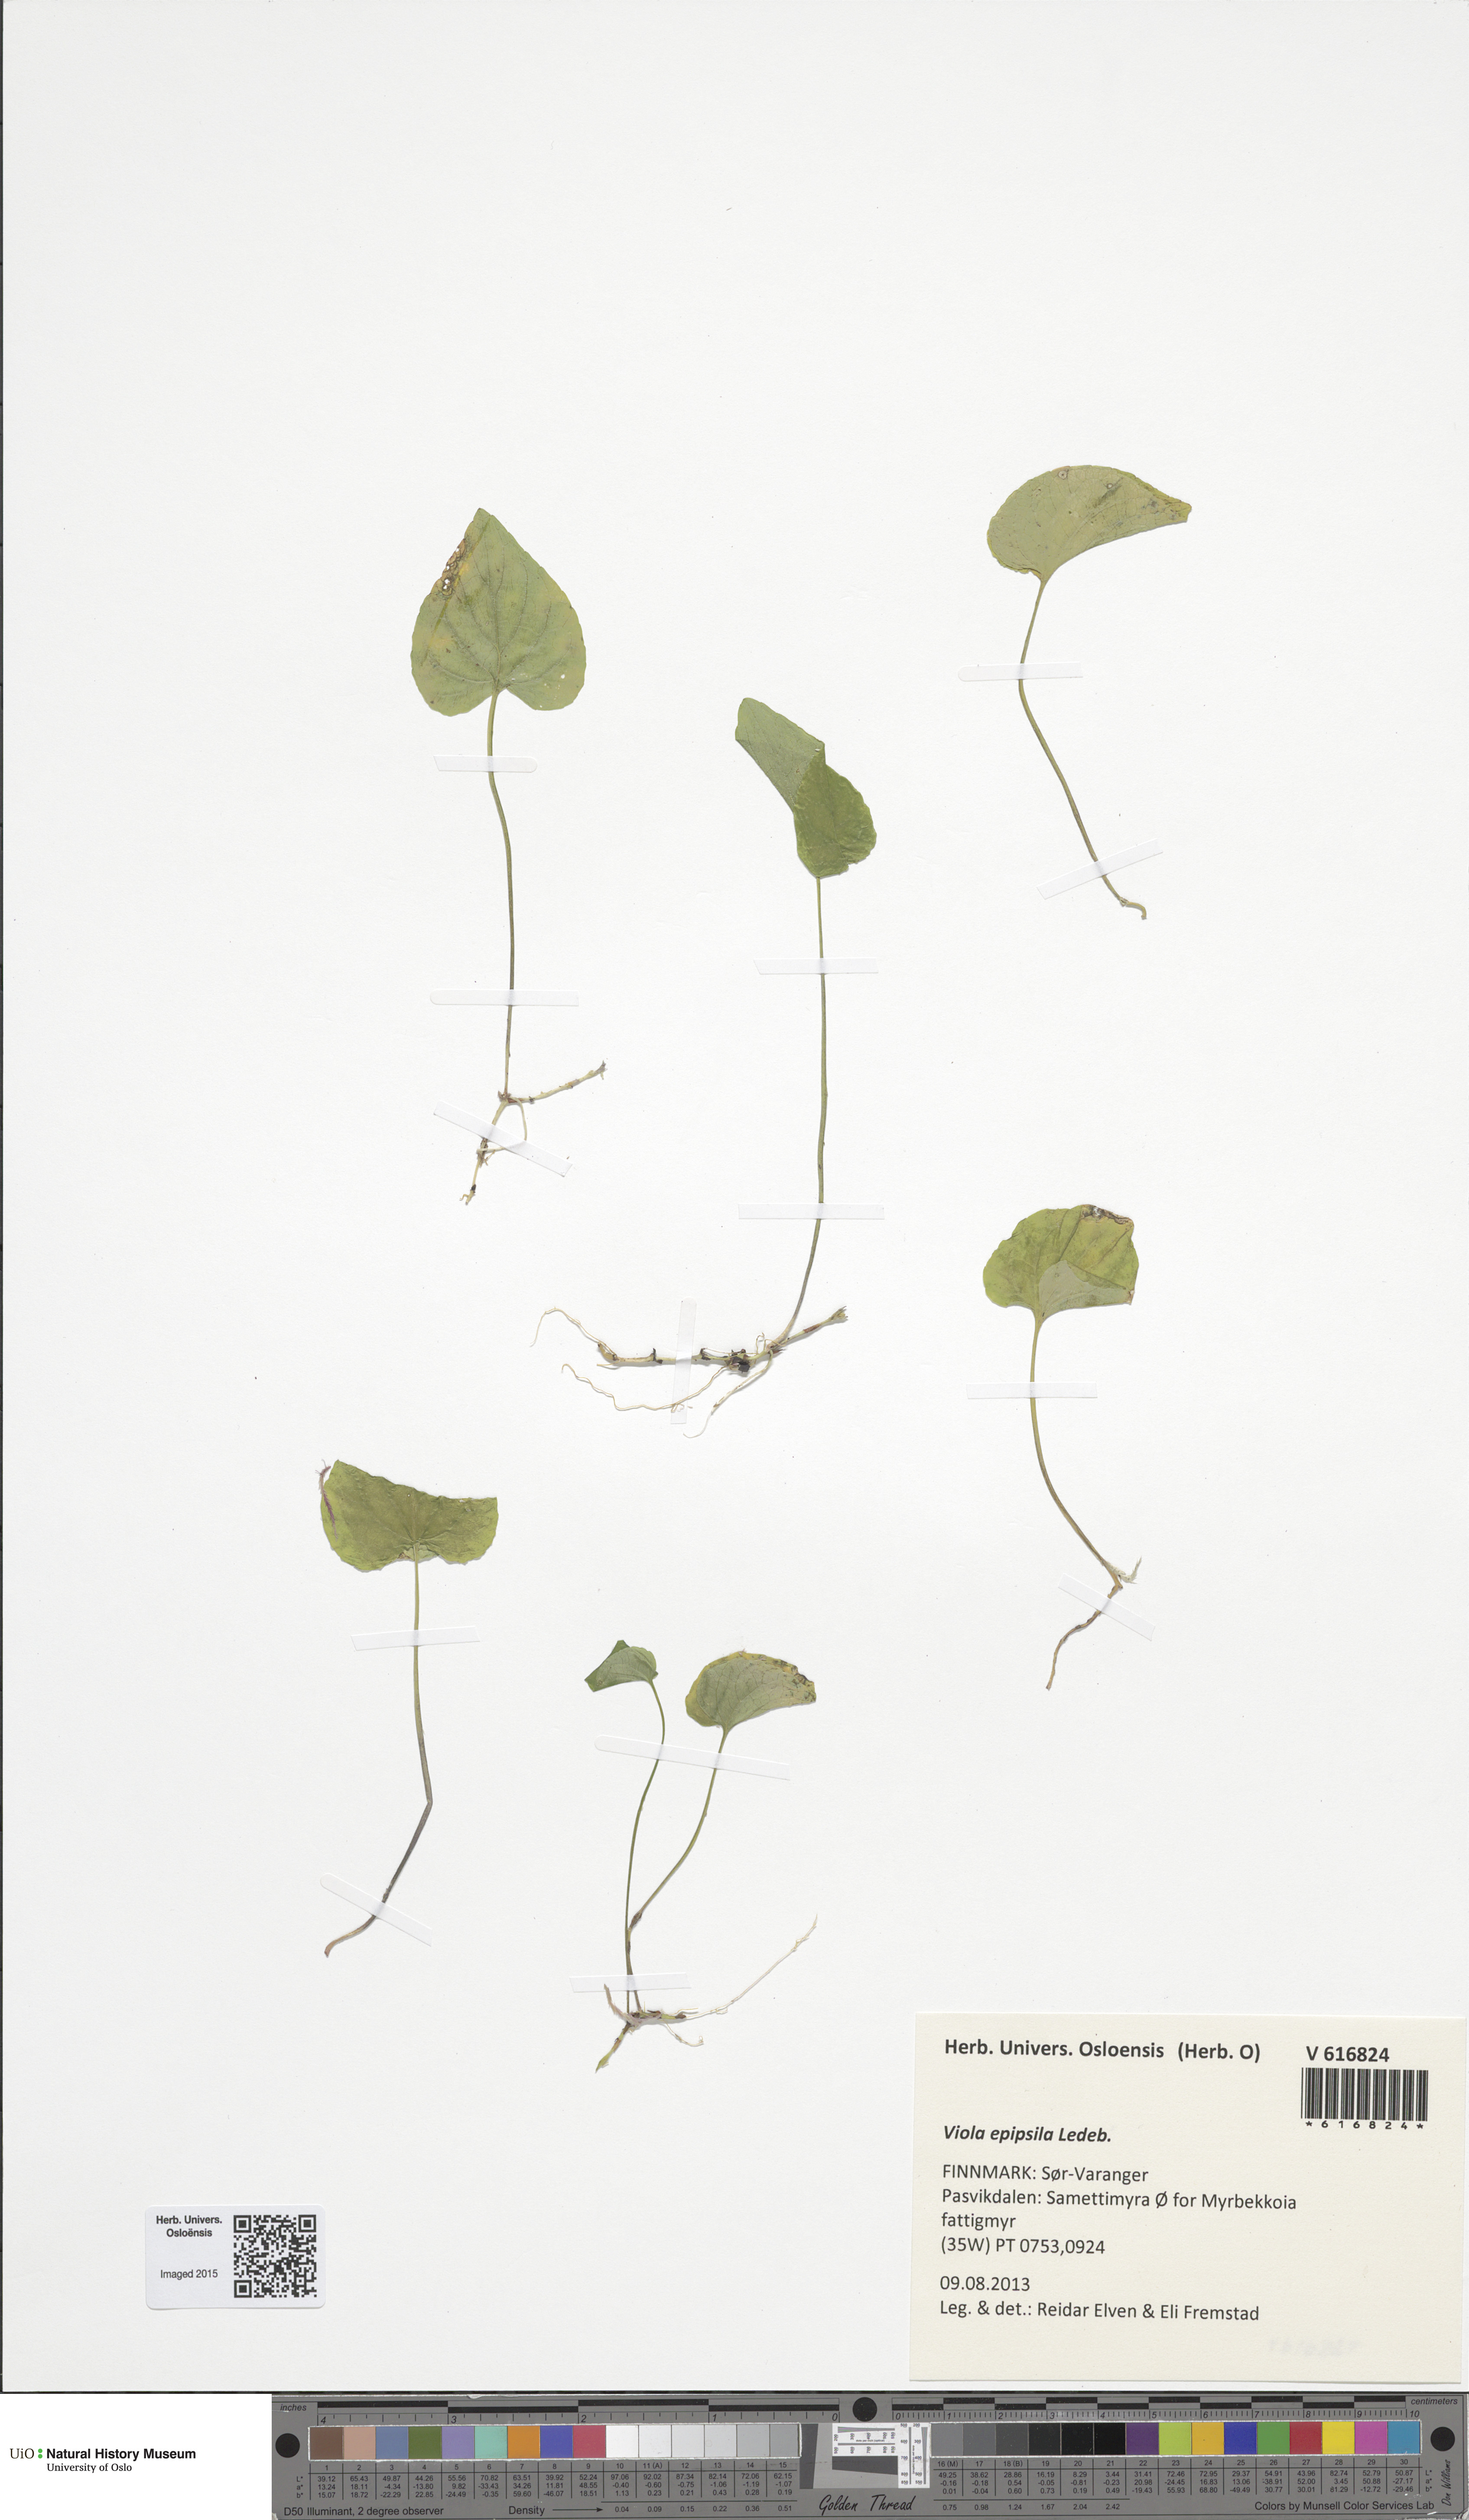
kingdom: Plantae
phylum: Tracheophyta
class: Magnoliopsida
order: Malpighiales
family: Violaceae
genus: Viola
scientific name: Viola epipsila
